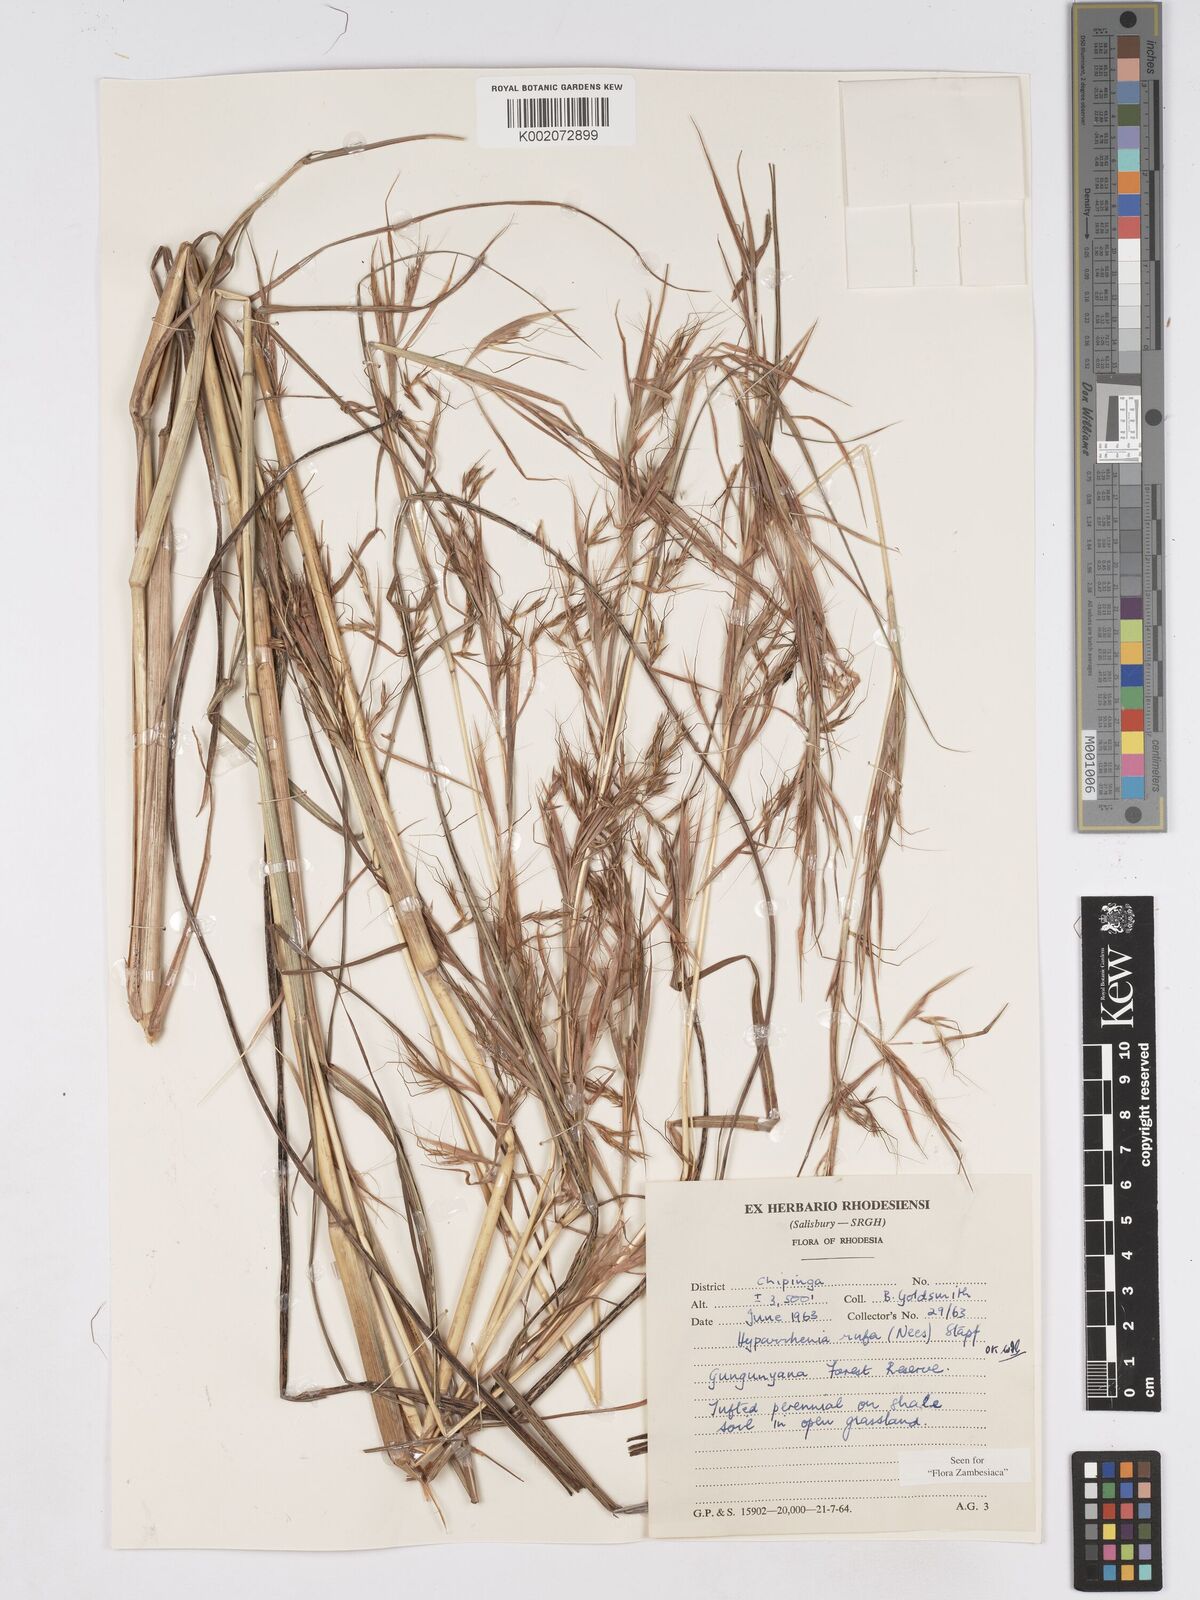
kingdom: Plantae
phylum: Tracheophyta
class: Liliopsida
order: Poales
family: Poaceae
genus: Hyparrhenia
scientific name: Hyparrhenia rufa
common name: Jaraguagrass
